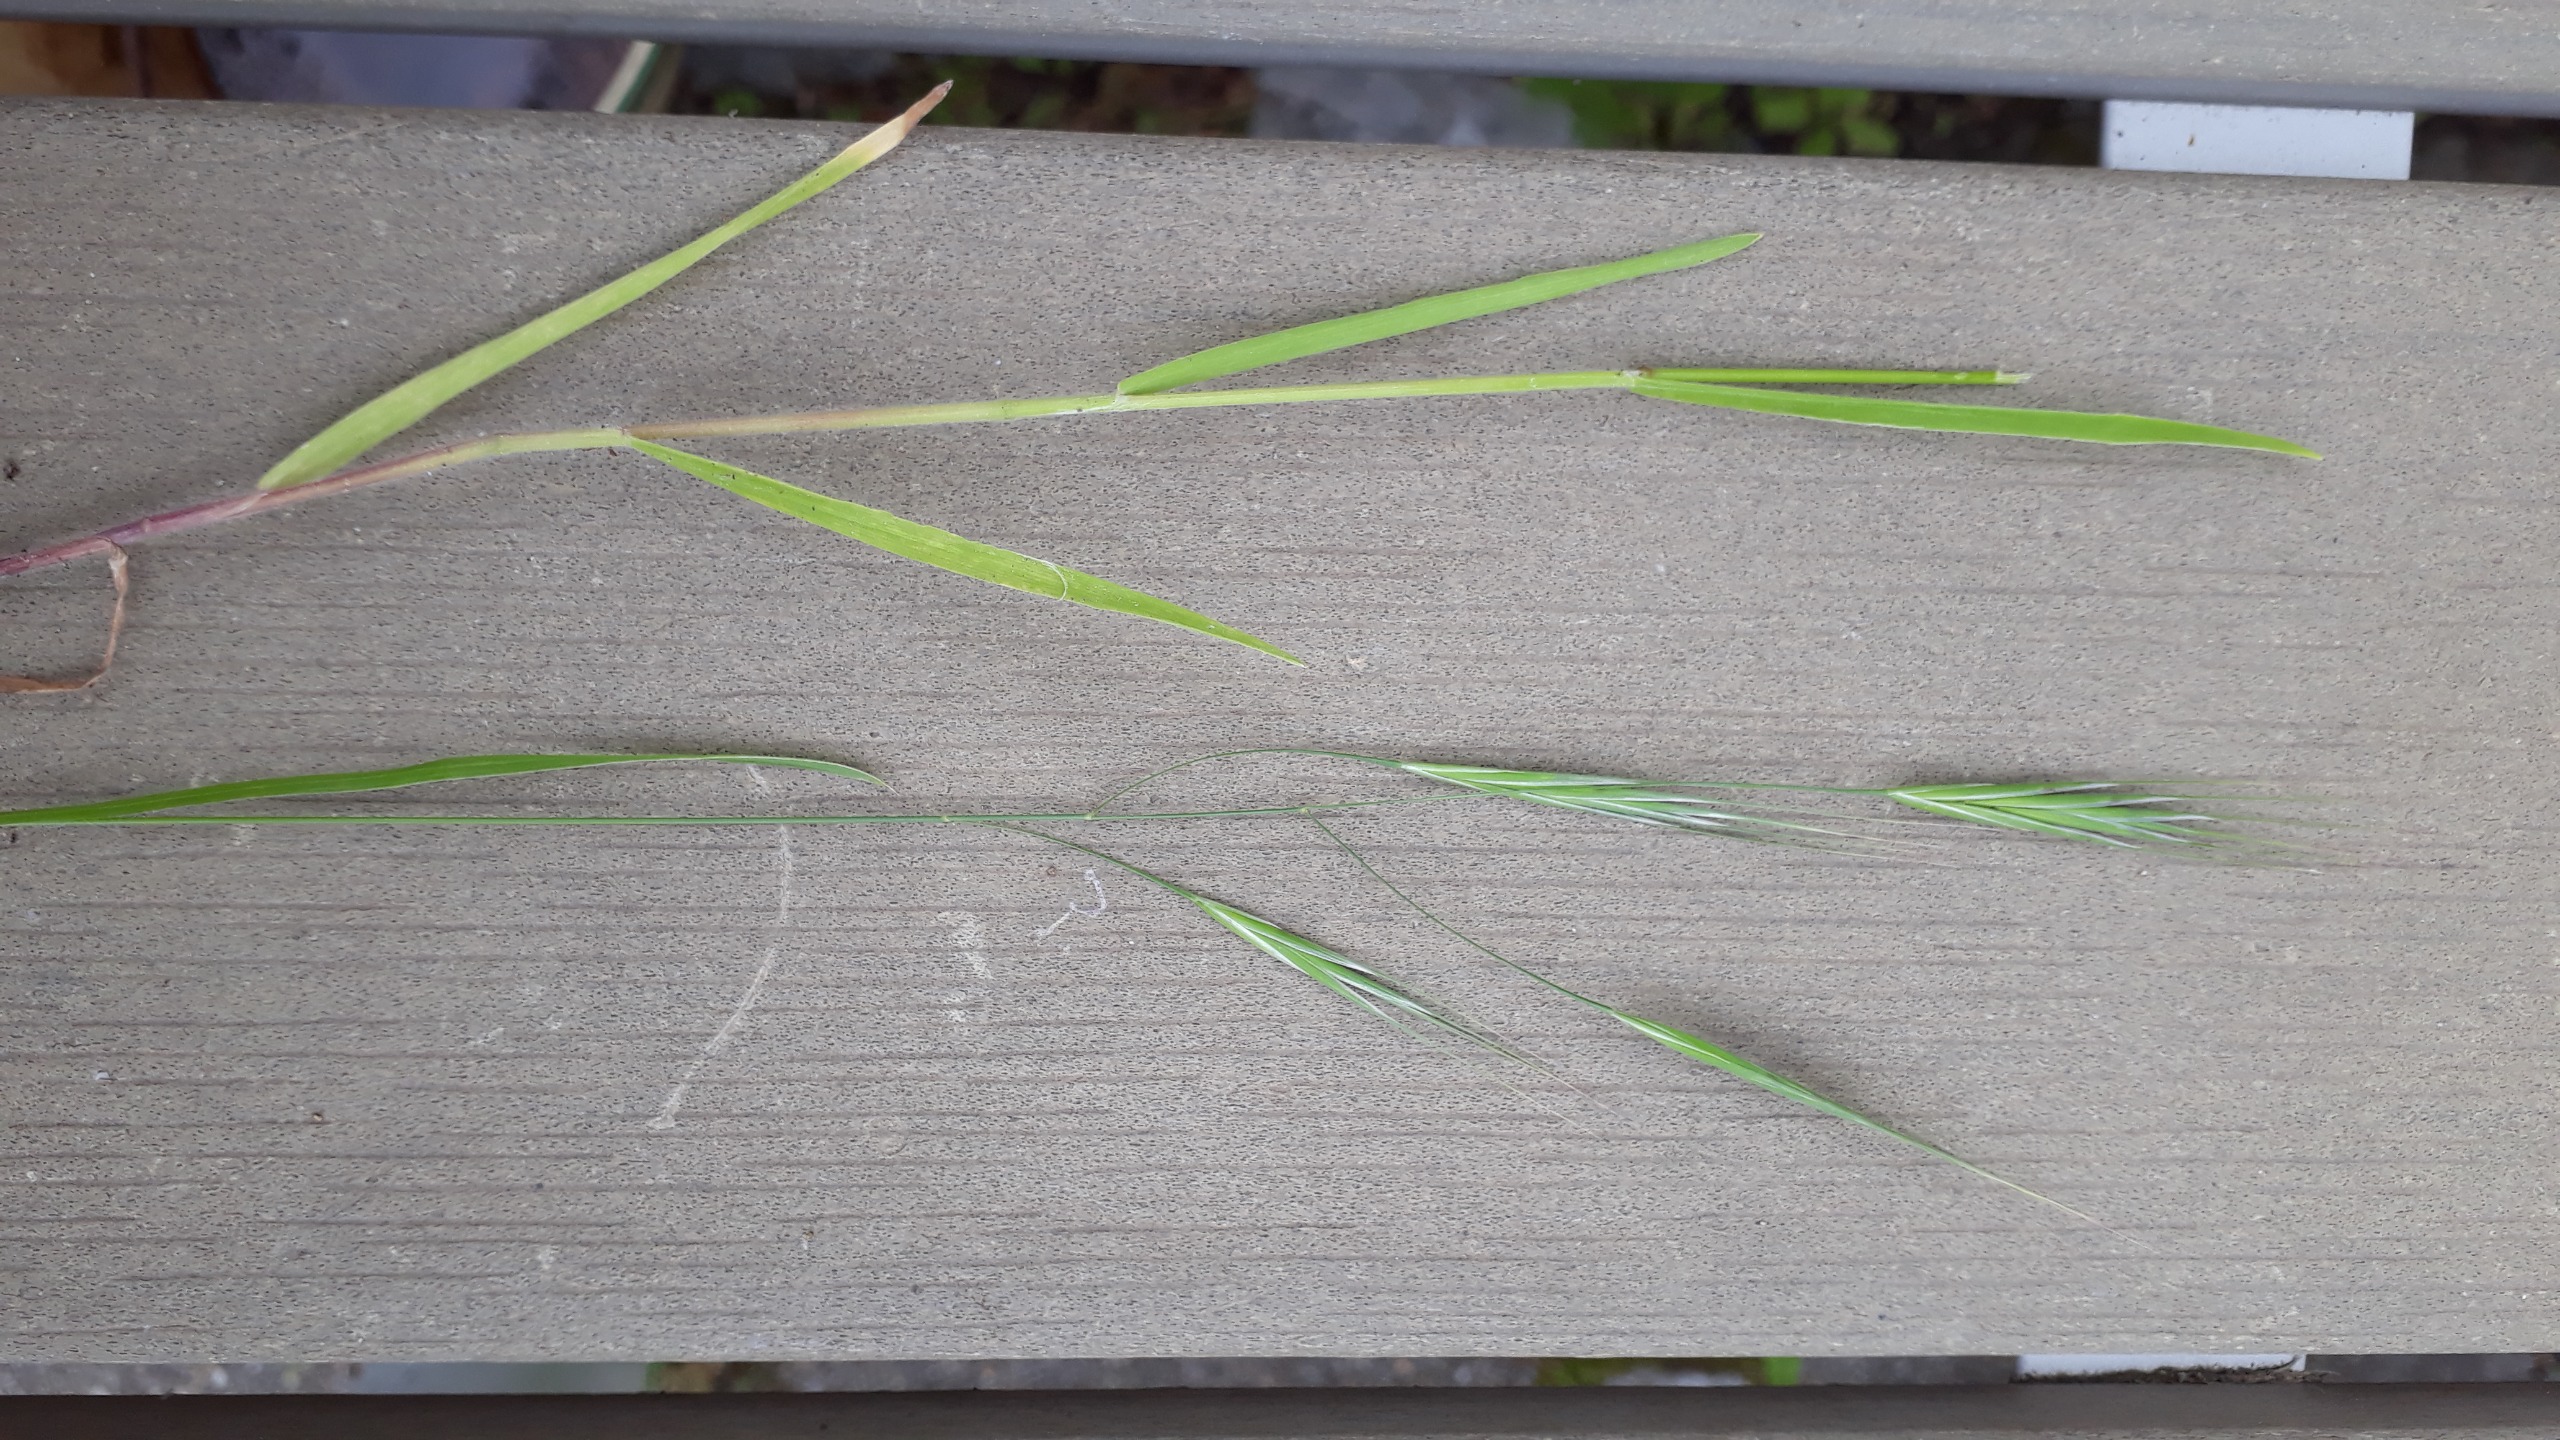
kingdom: Plantae
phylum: Tracheophyta
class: Liliopsida
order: Poales
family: Poaceae
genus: Bromus
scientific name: Bromus sterilis
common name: Gold hejre
